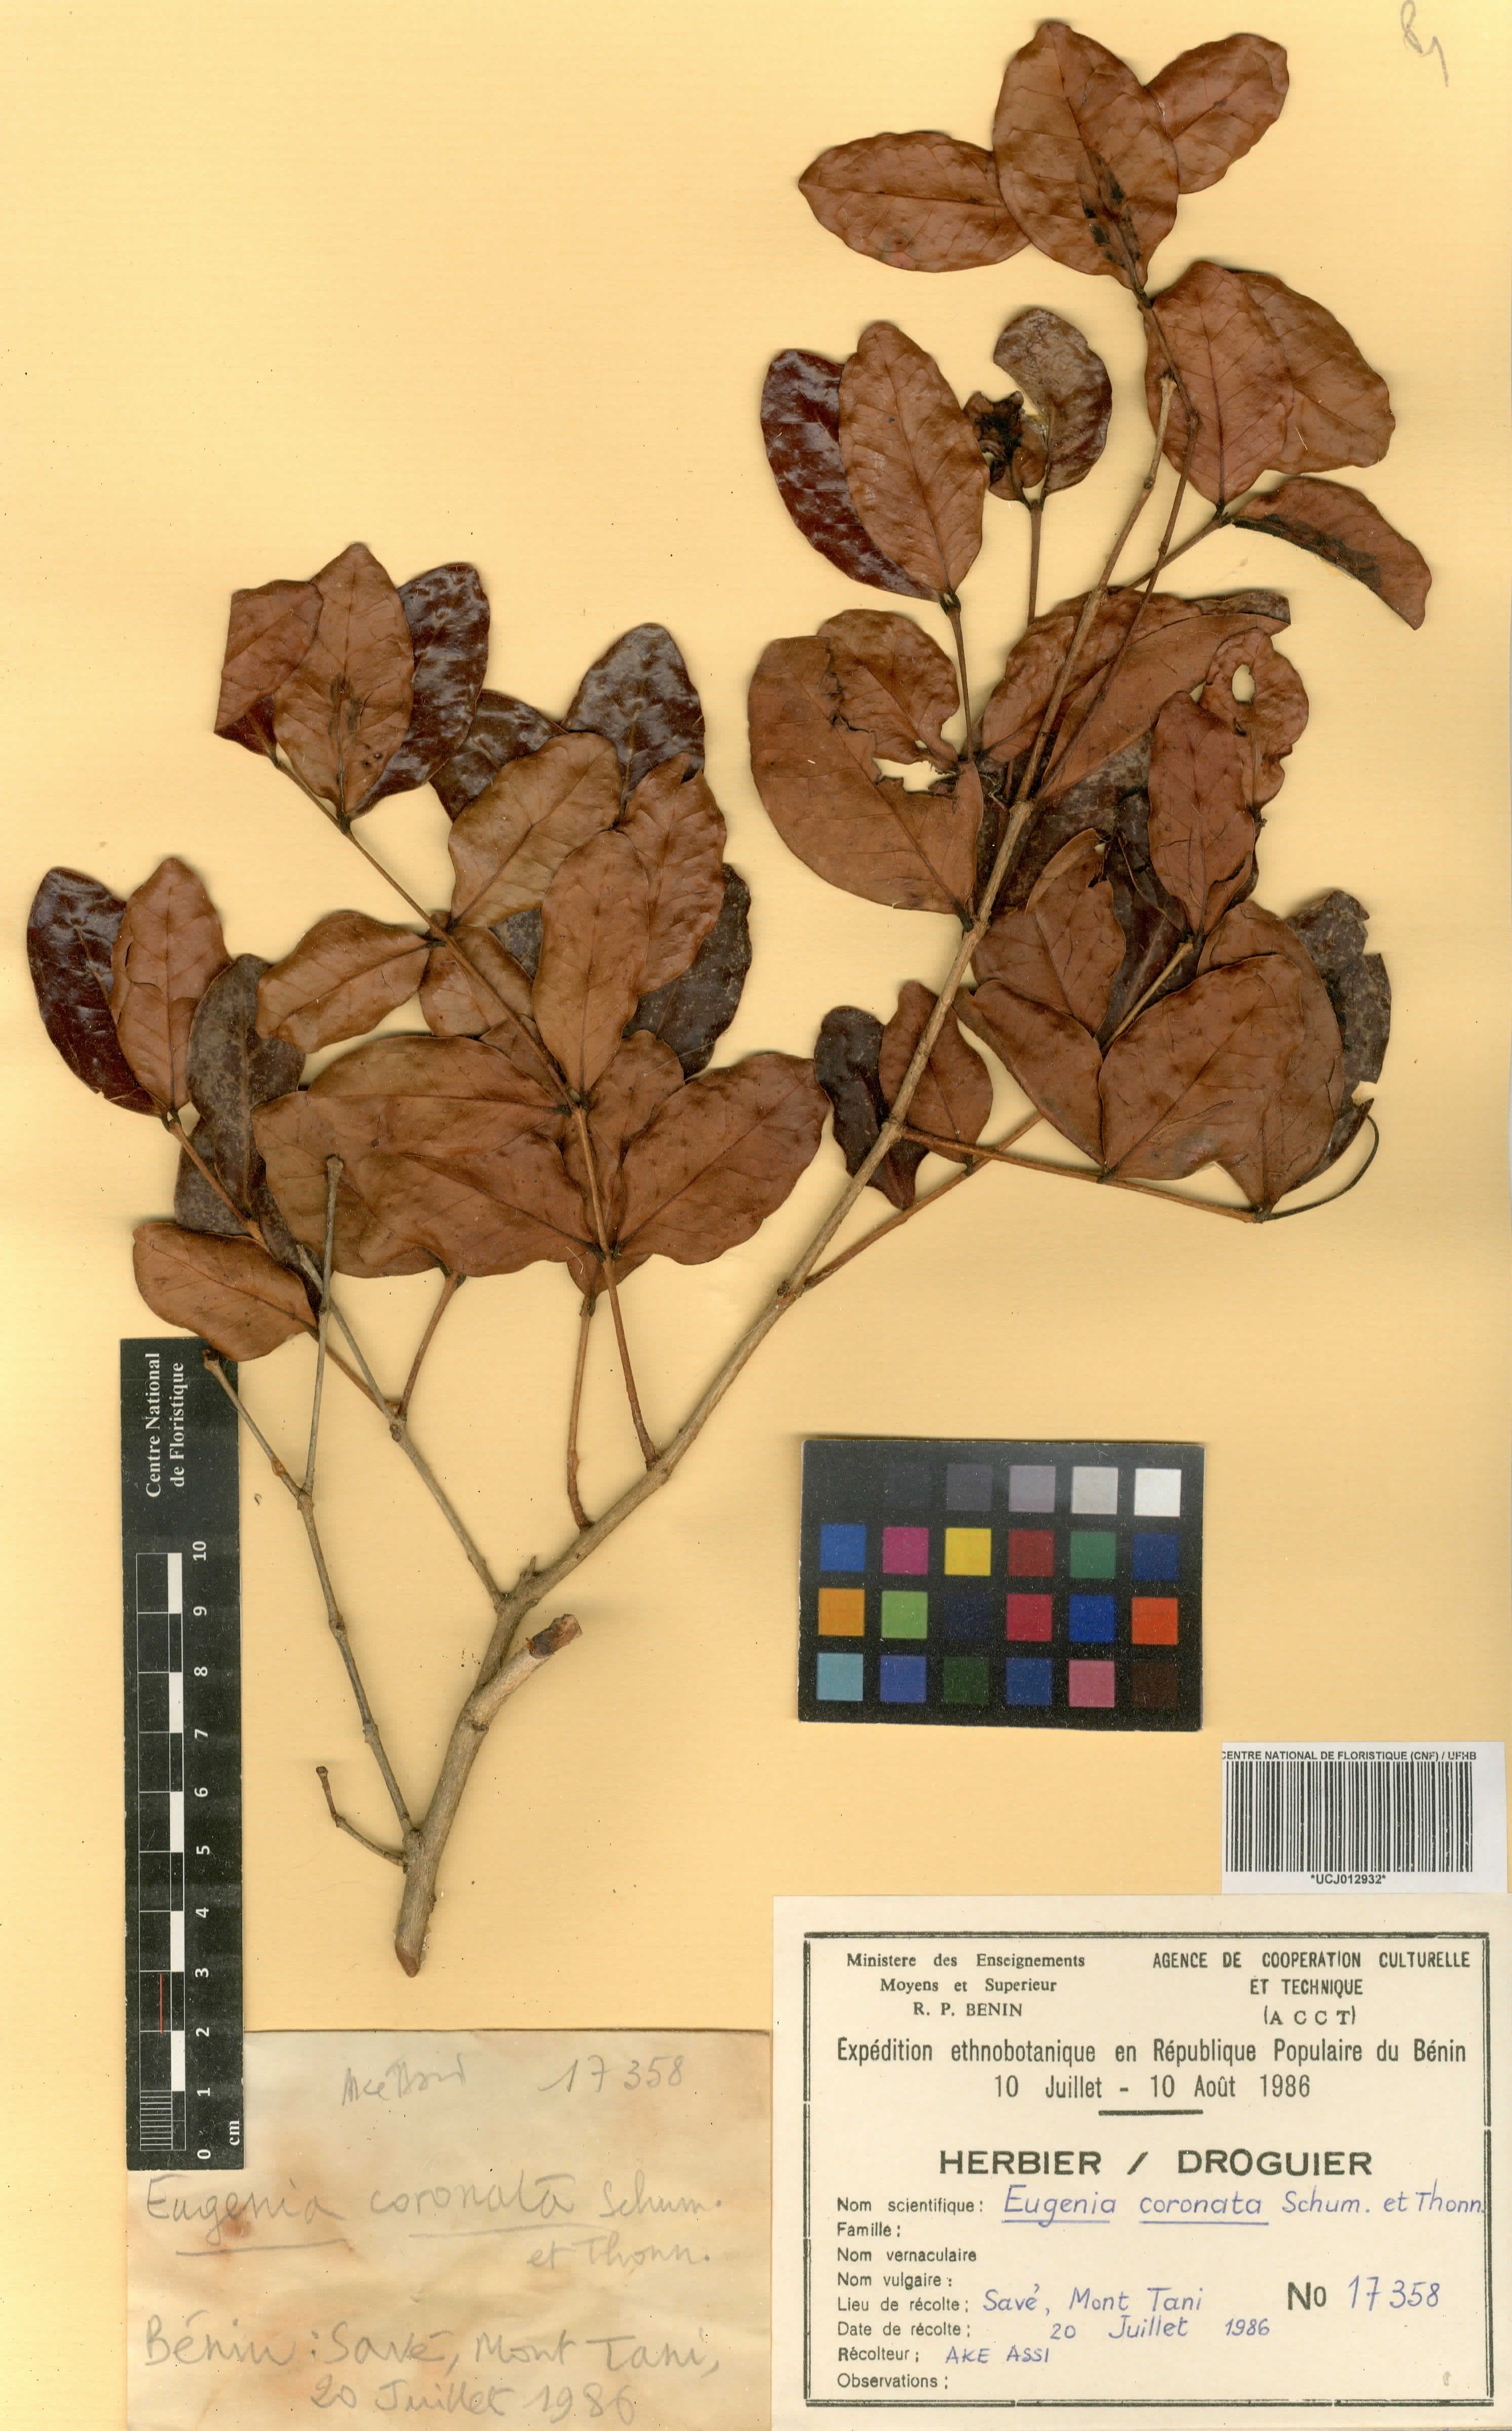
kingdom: Plantae
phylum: Tracheophyta
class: Magnoliopsida
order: Myrtales
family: Myrtaceae
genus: Eugenia
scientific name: Eugenia coronata
